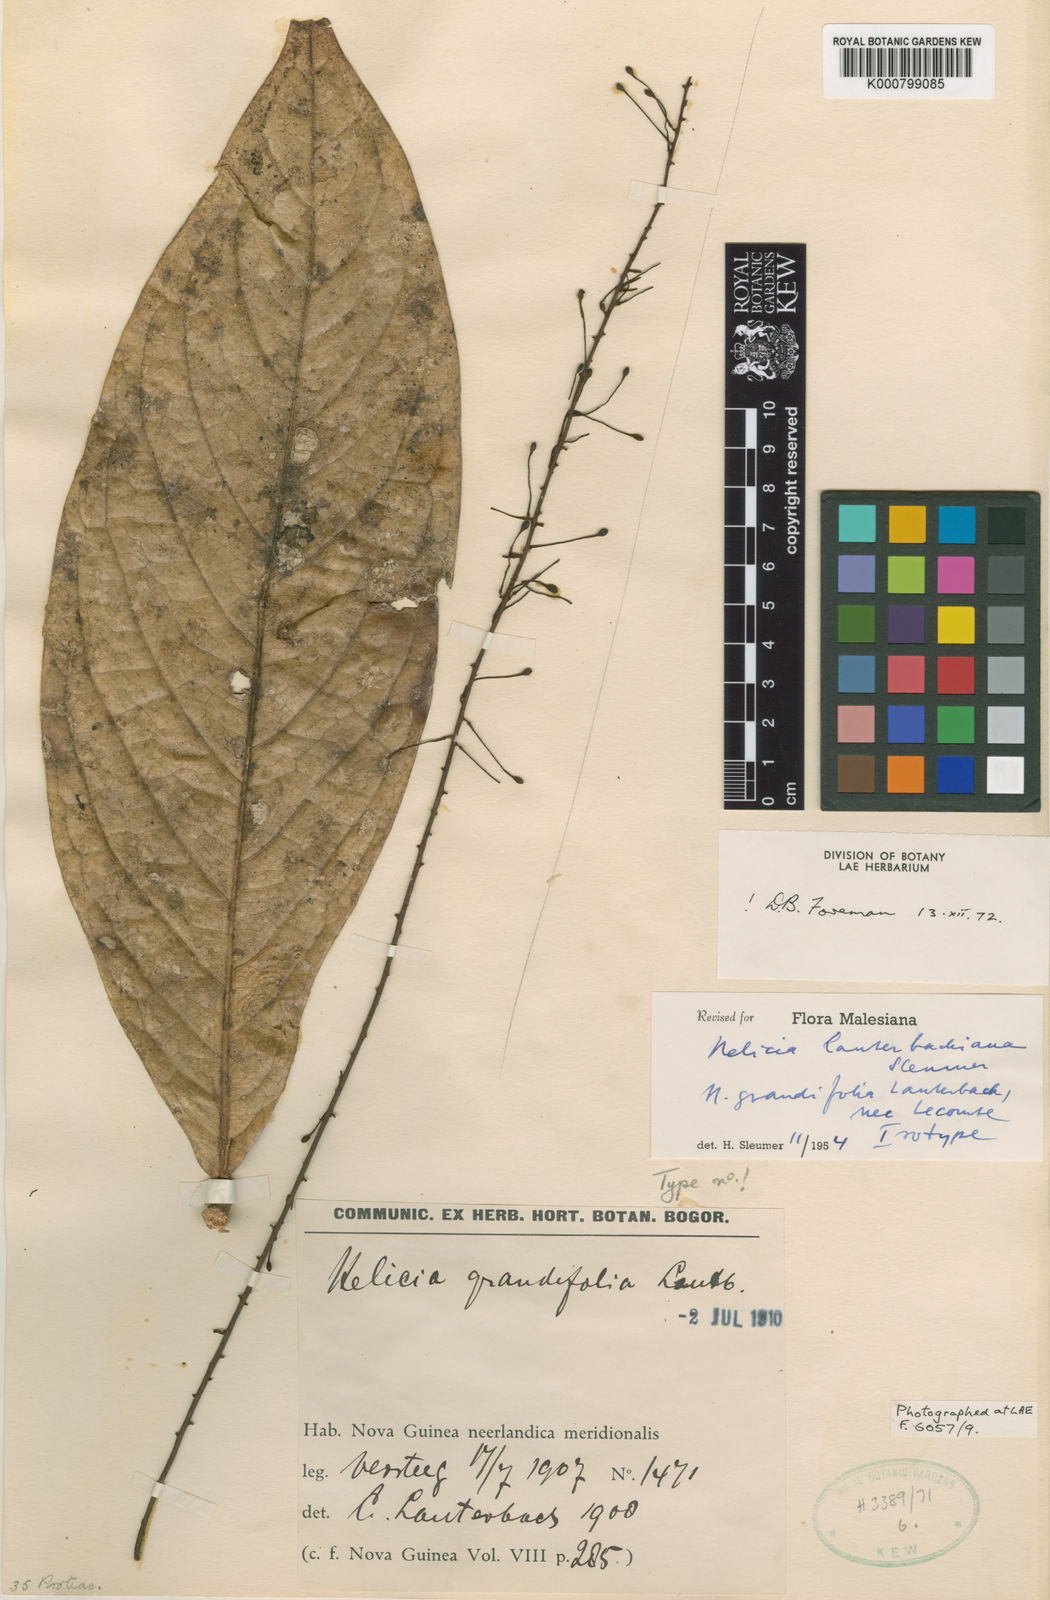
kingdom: Plantae
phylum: Tracheophyta
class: Magnoliopsida
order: Proteales
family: Proteaceae
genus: Helicia
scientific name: Helicia lauterbachiana
